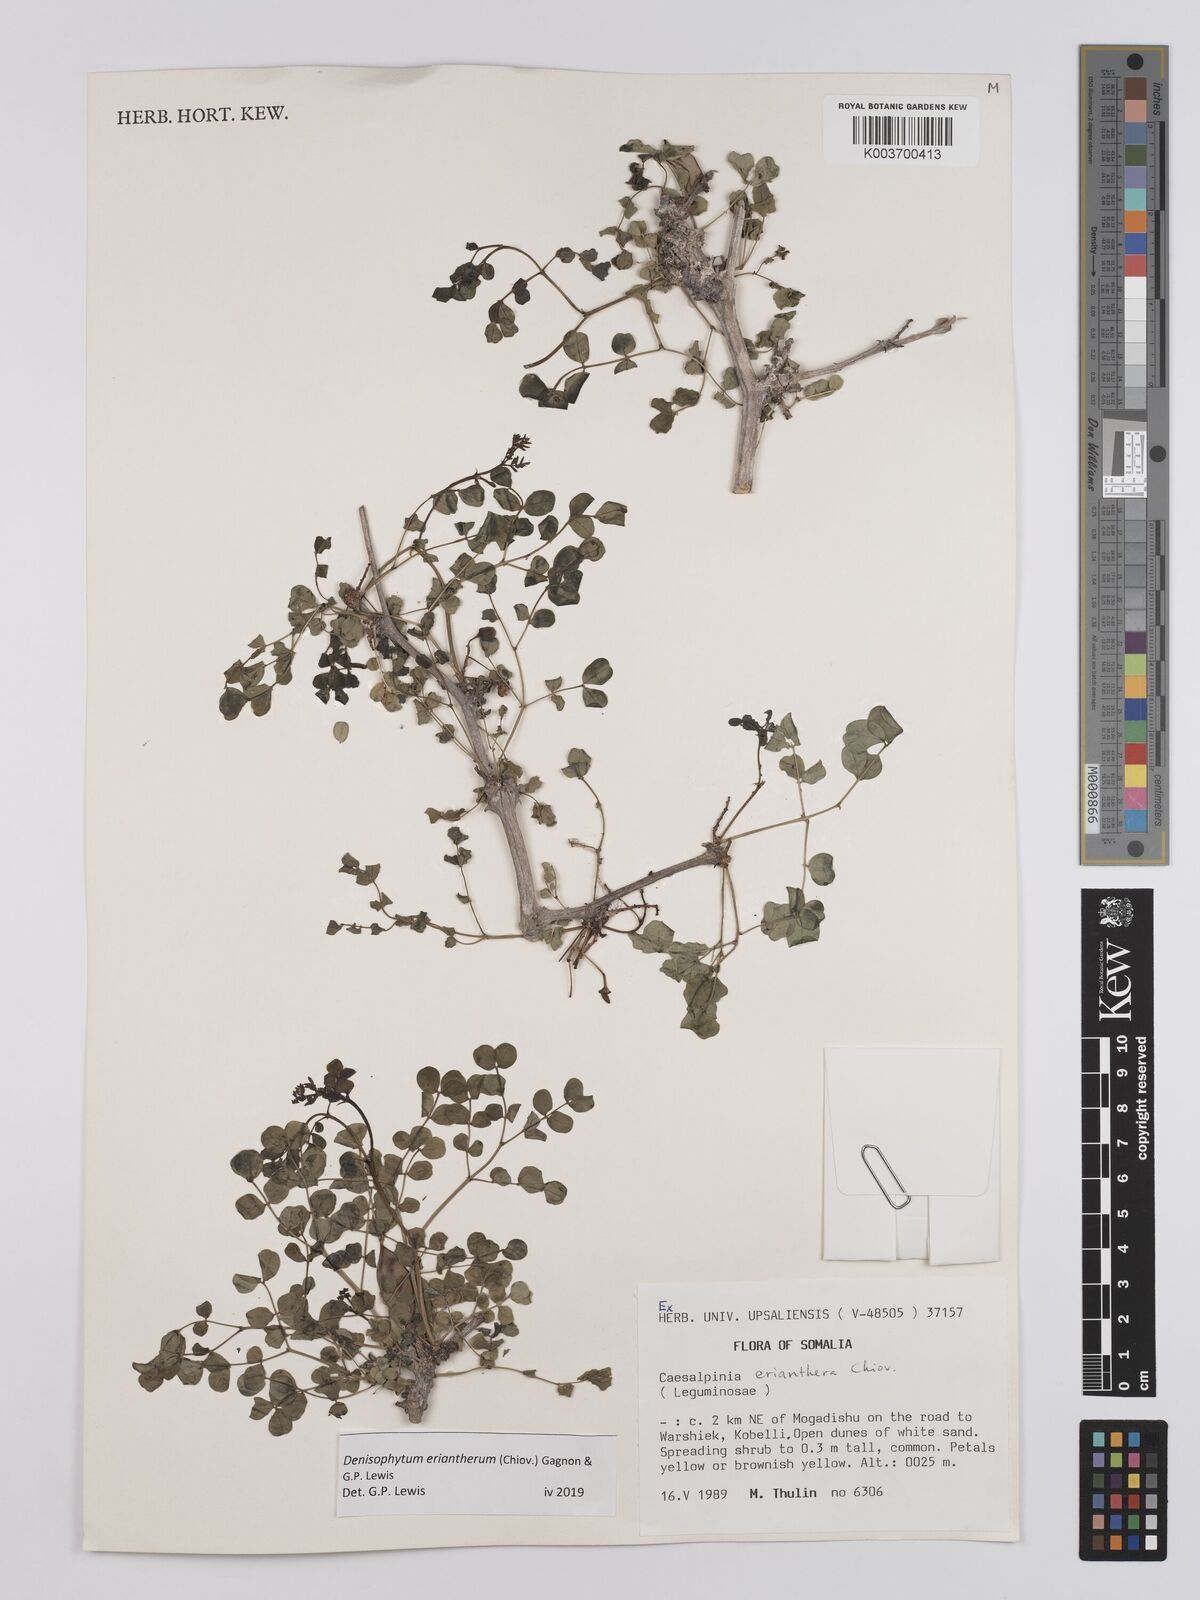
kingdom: Plantae
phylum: Tracheophyta
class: Magnoliopsida
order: Fabales
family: Fabaceae
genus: Denisophytum
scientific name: Denisophytum eriantherum
